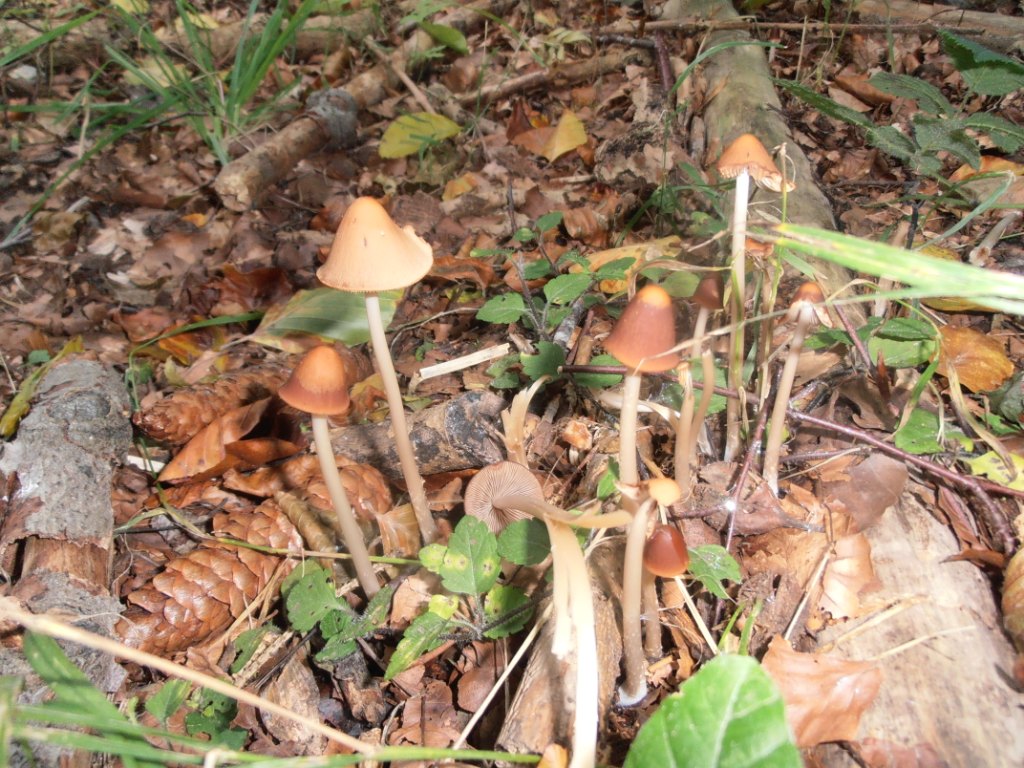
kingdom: Fungi
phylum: Basidiomycota
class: Agaricomycetes
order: Agaricales
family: Psathyrellaceae
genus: Parasola
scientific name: Parasola conopilea
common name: kegle-hjulhat
